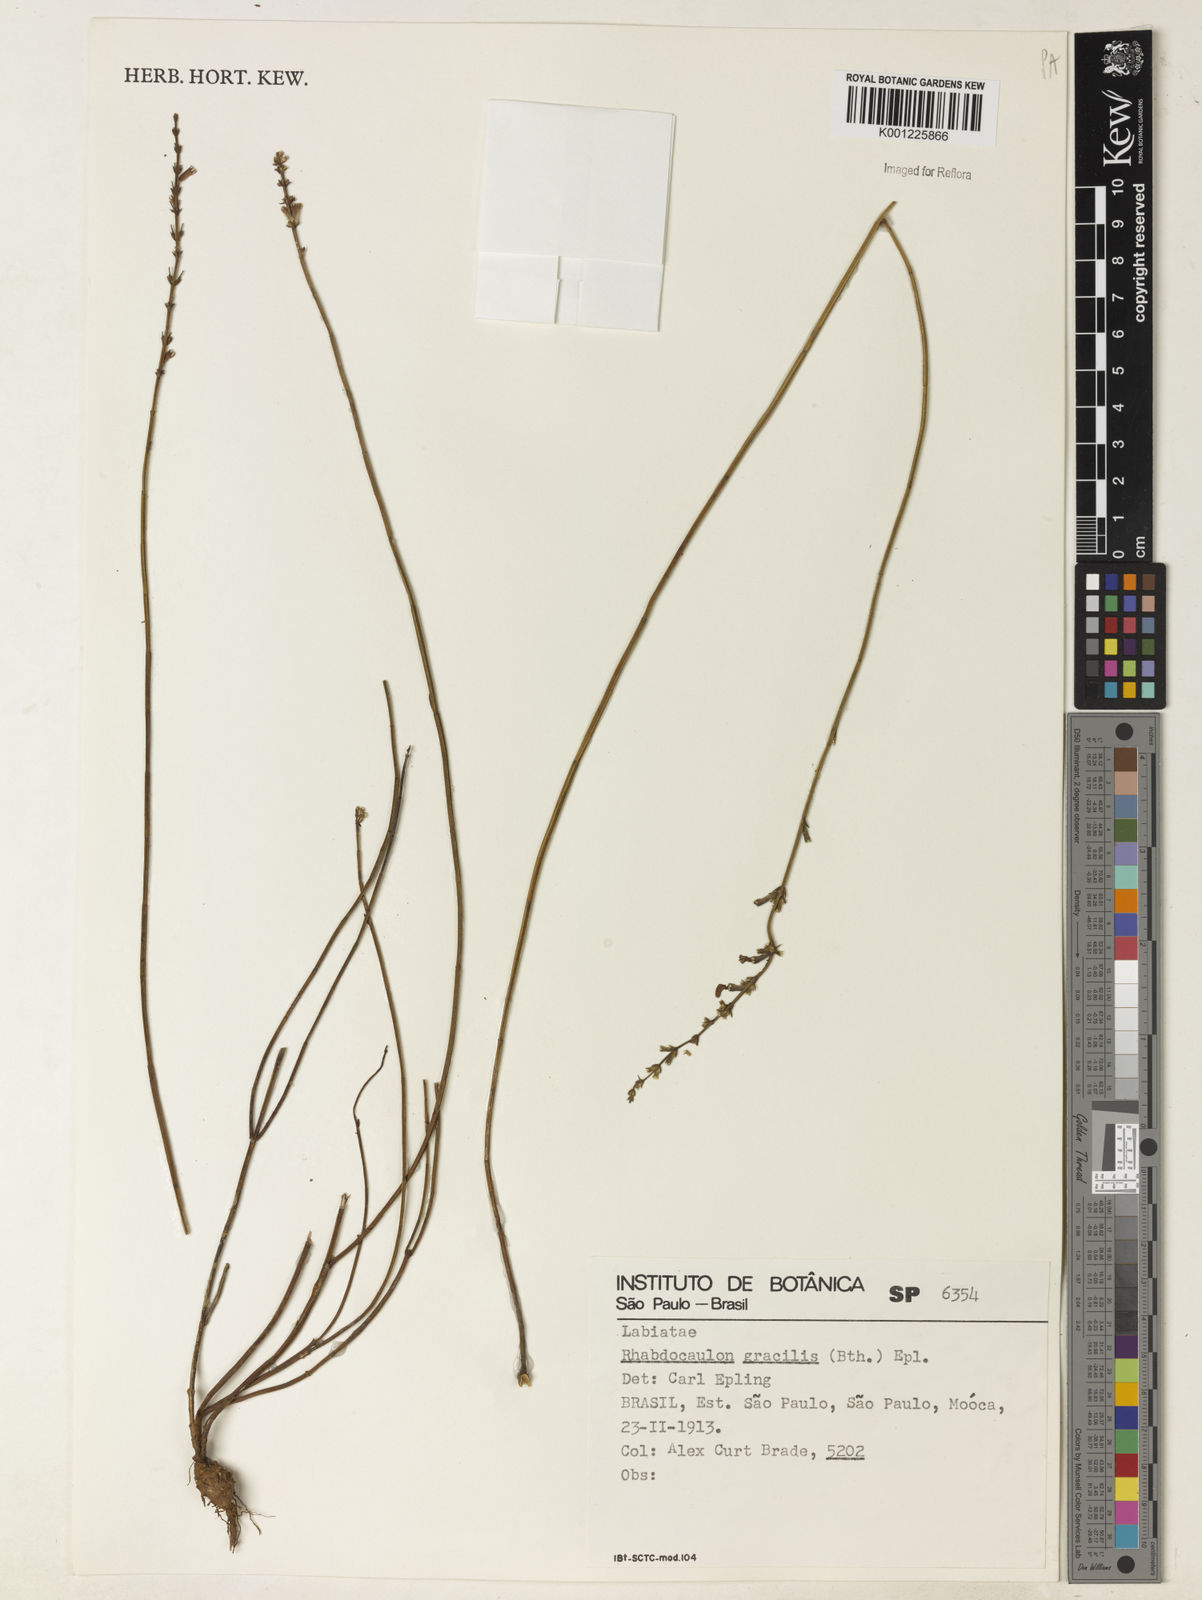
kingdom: Plantae
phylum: Tracheophyta
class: Magnoliopsida
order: Lamiales
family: Lamiaceae
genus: Rhabdocaulon
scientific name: Rhabdocaulon gracile
